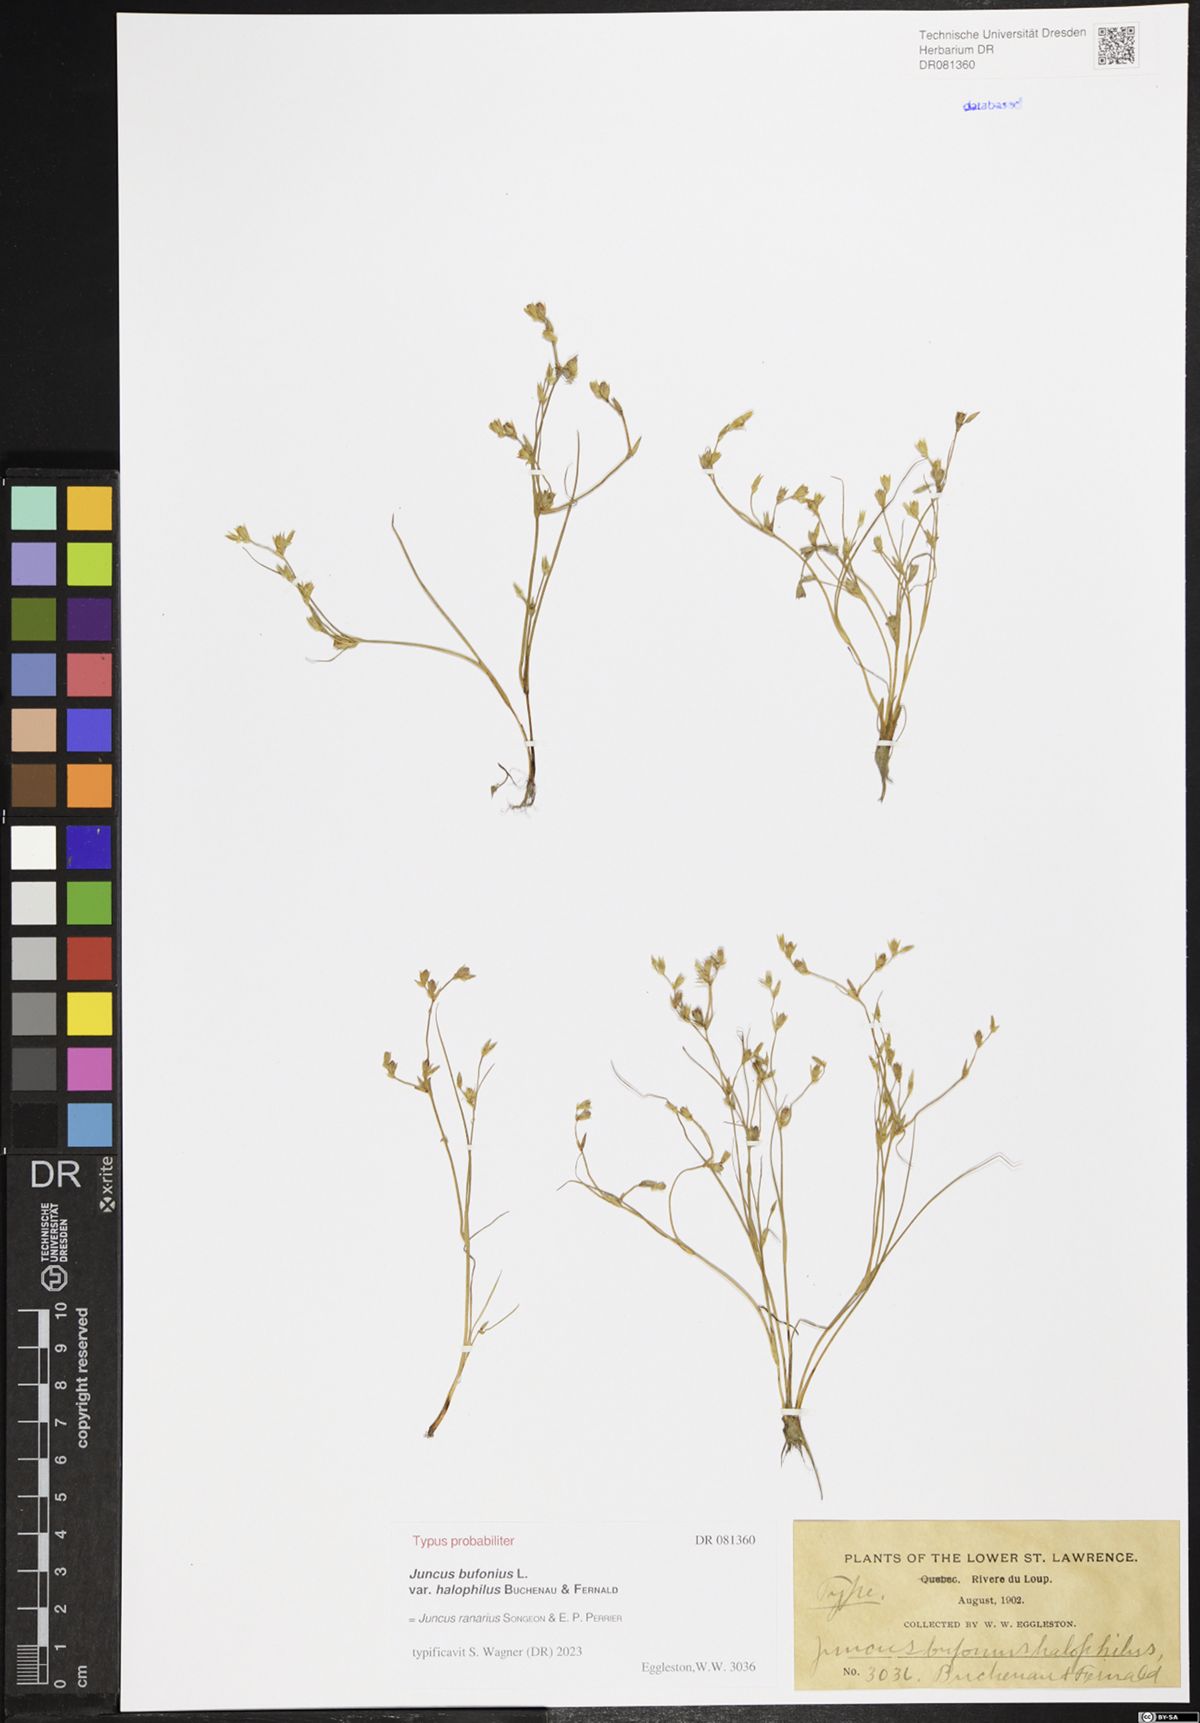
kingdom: Plantae
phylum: Tracheophyta
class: Liliopsida
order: Poales
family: Juncaceae
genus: Juncus
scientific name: Juncus ranarius
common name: Frog rush
